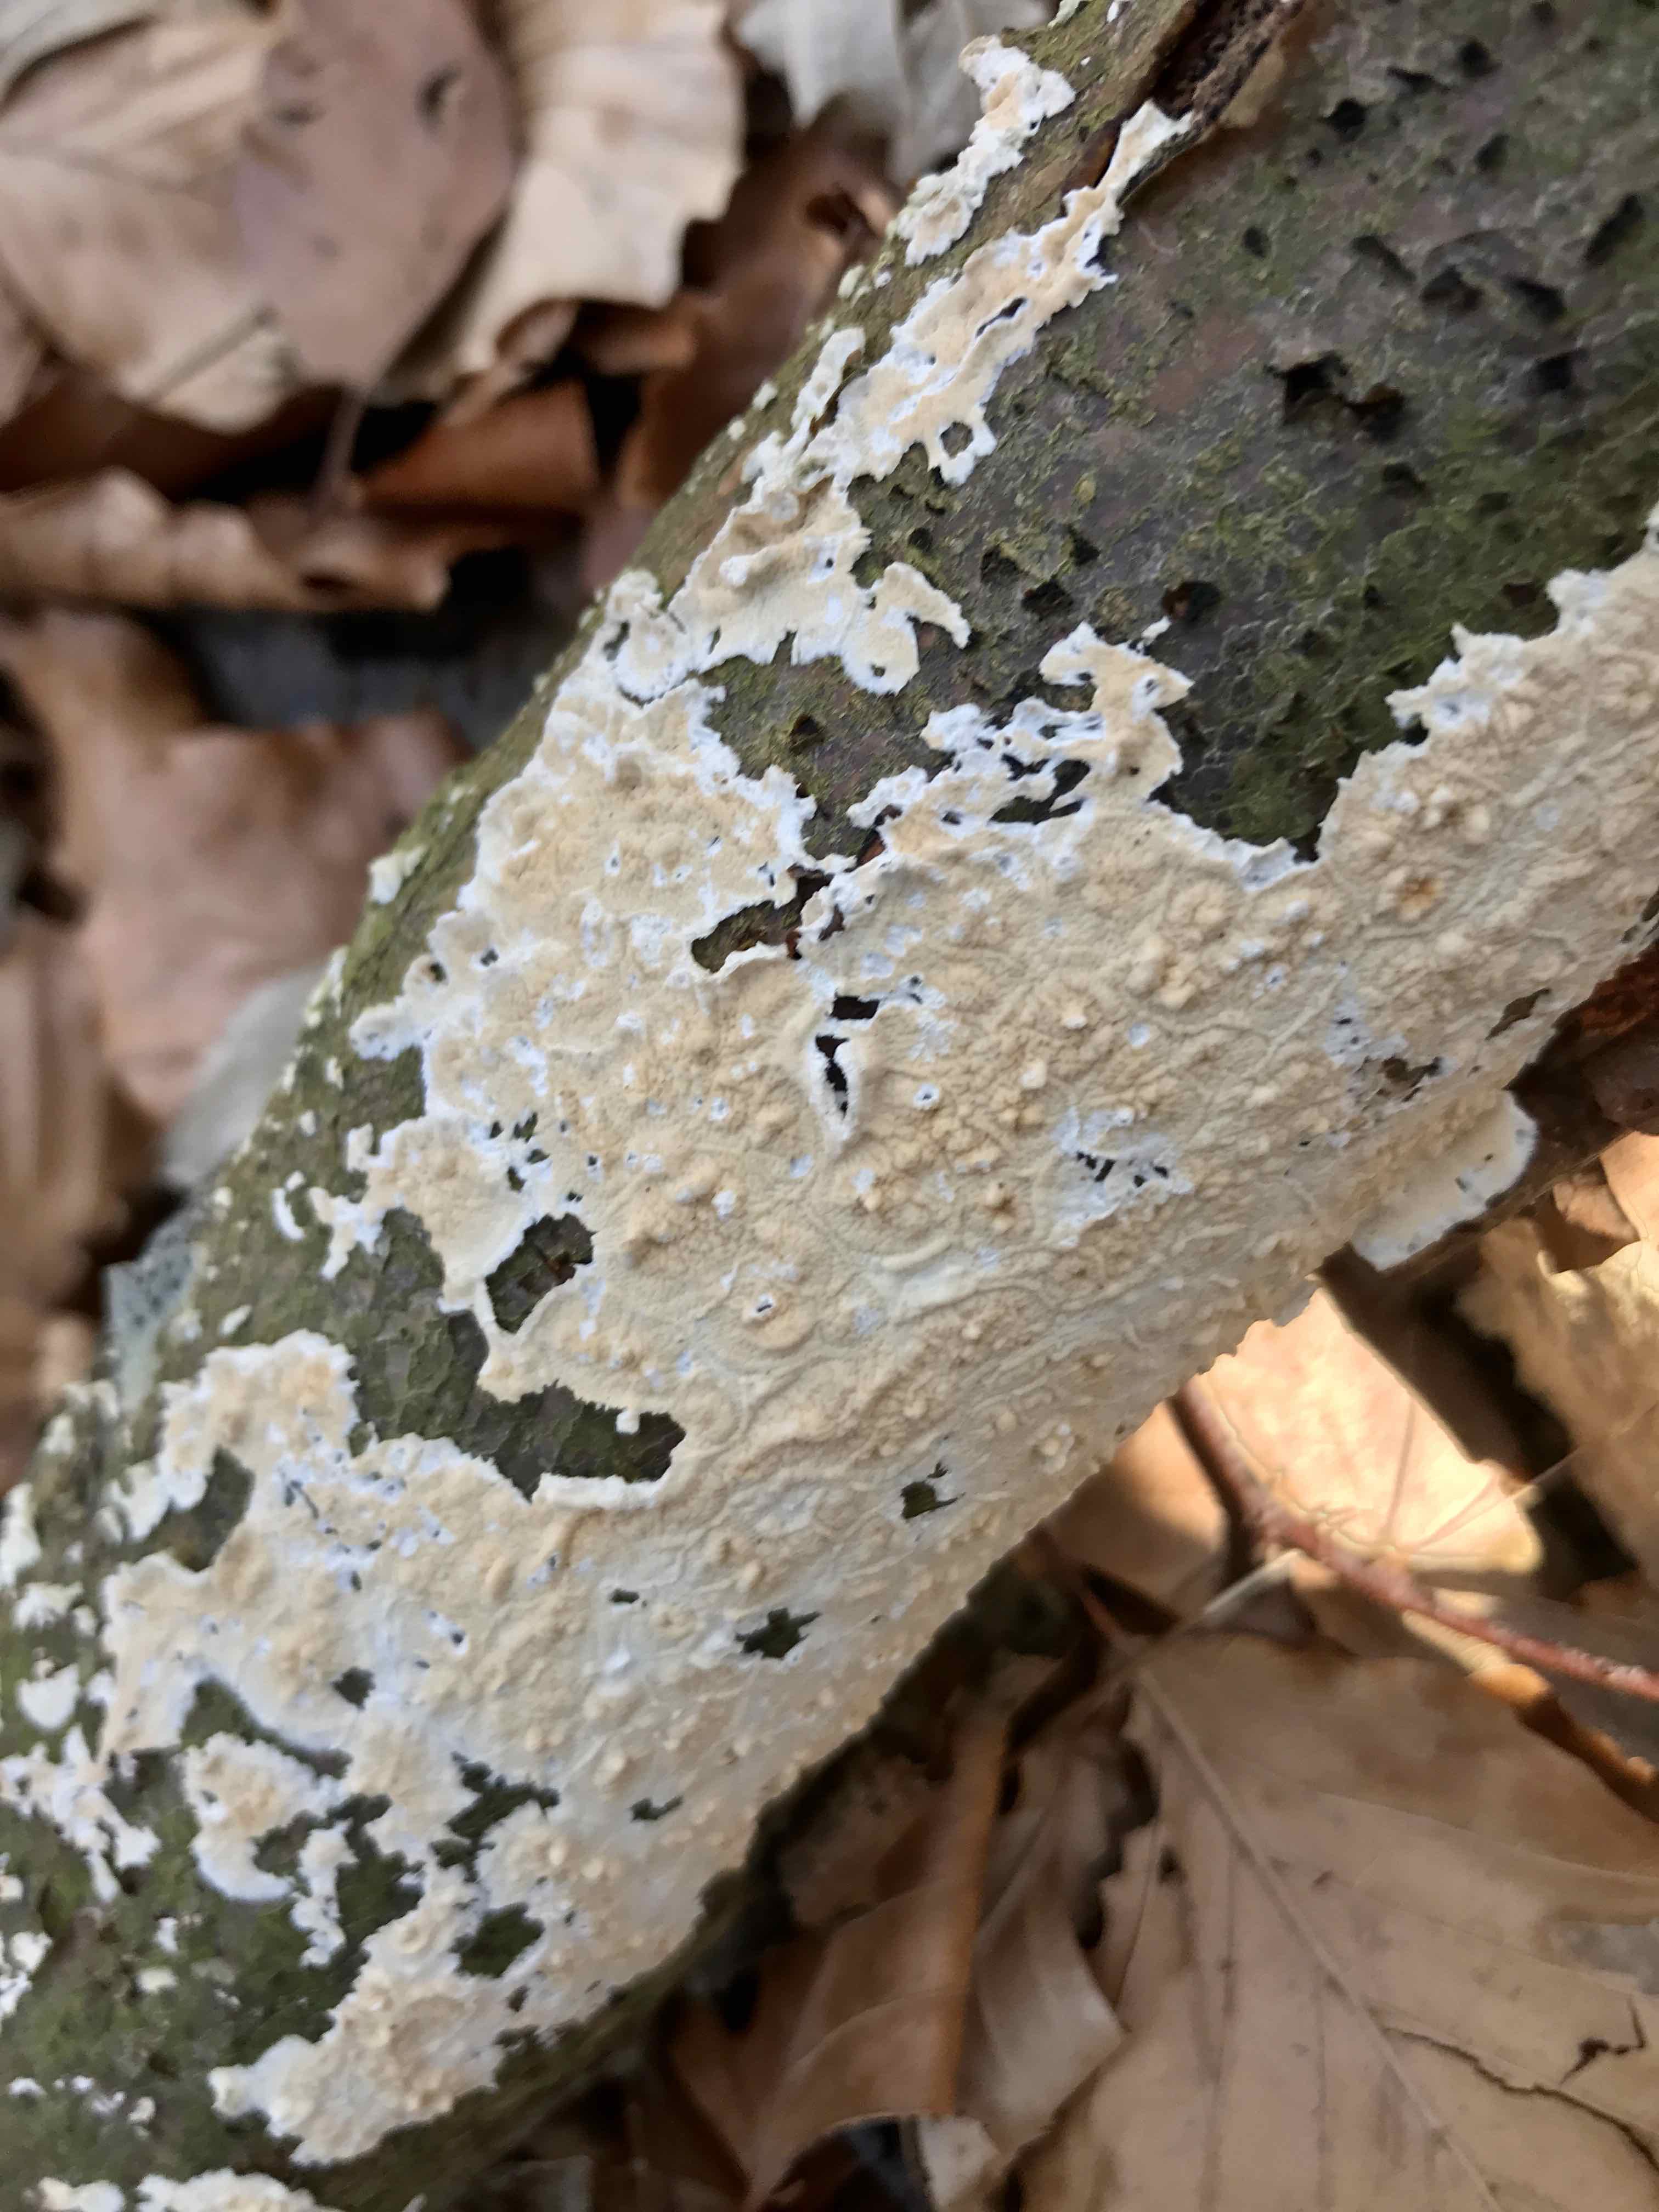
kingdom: Fungi
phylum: Basidiomycota
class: Agaricomycetes
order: Polyporales
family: Irpicaceae
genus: Byssomerulius
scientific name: Byssomerulius corium
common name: læder-åresvamp
